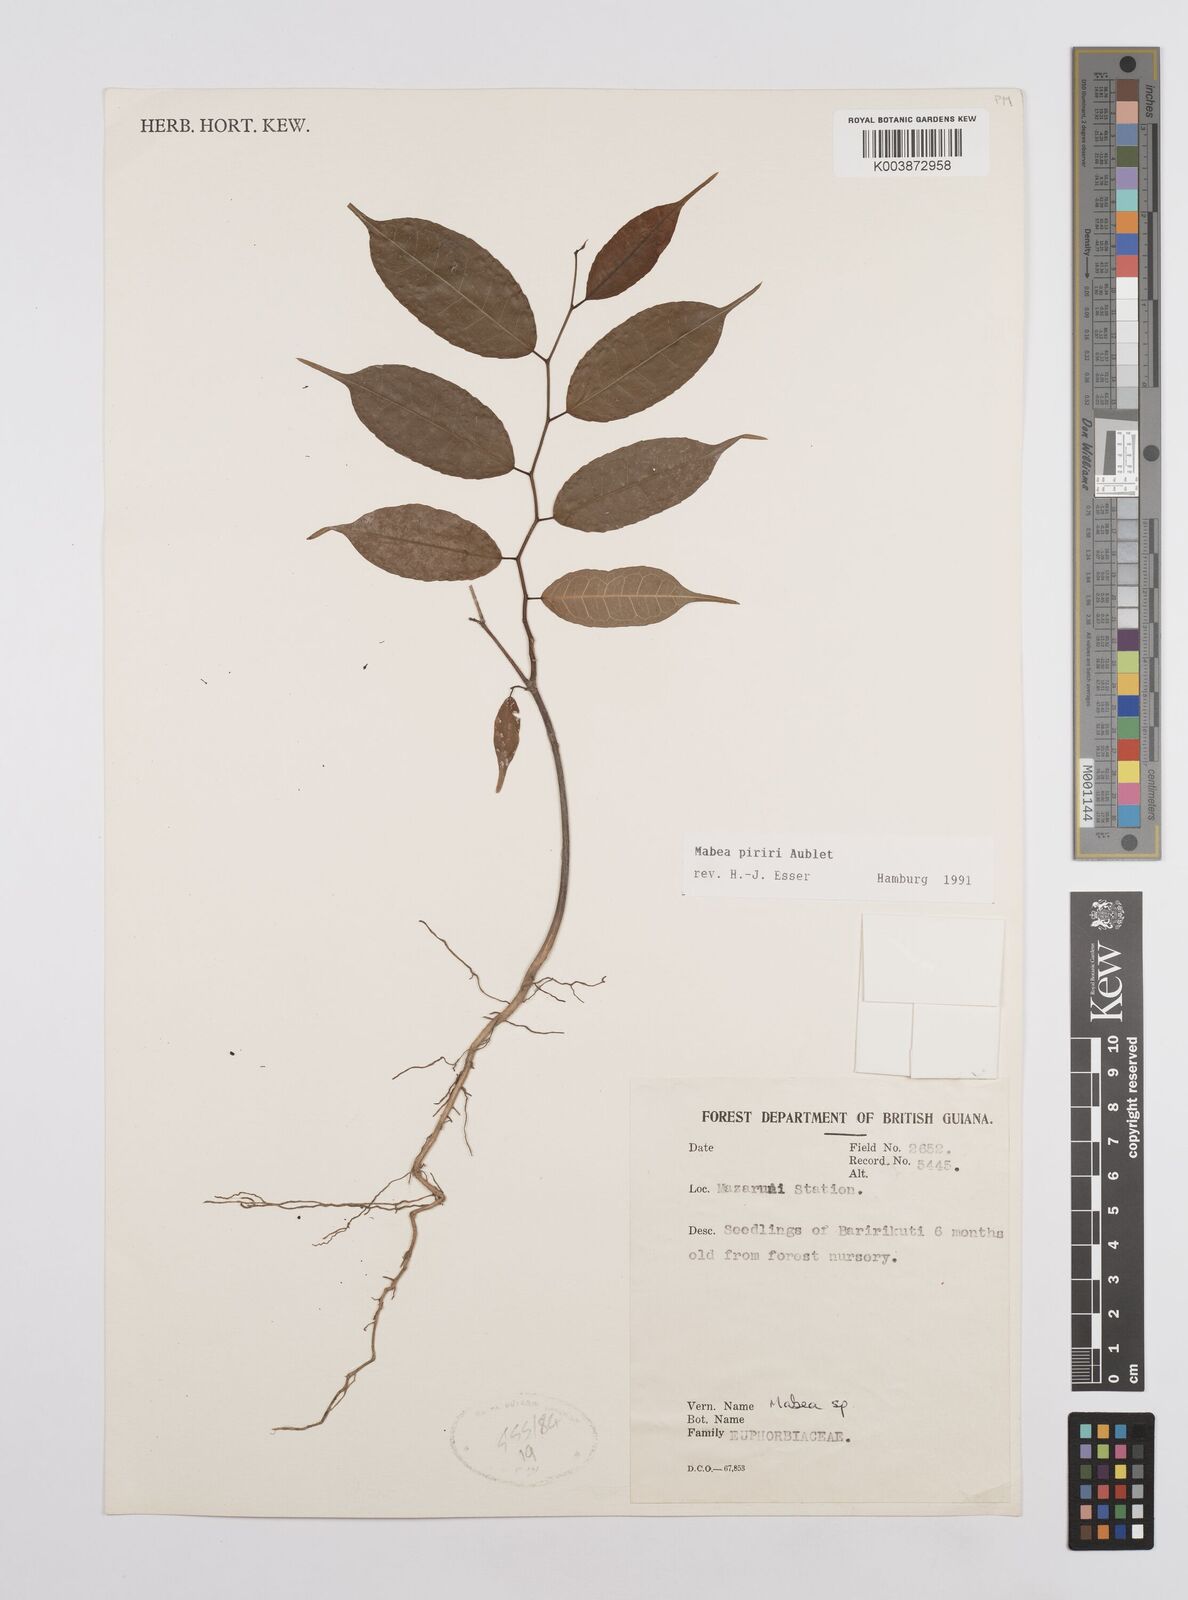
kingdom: Plantae
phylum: Tracheophyta
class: Magnoliopsida
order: Malpighiales
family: Euphorbiaceae
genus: Mabea
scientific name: Mabea piriri
